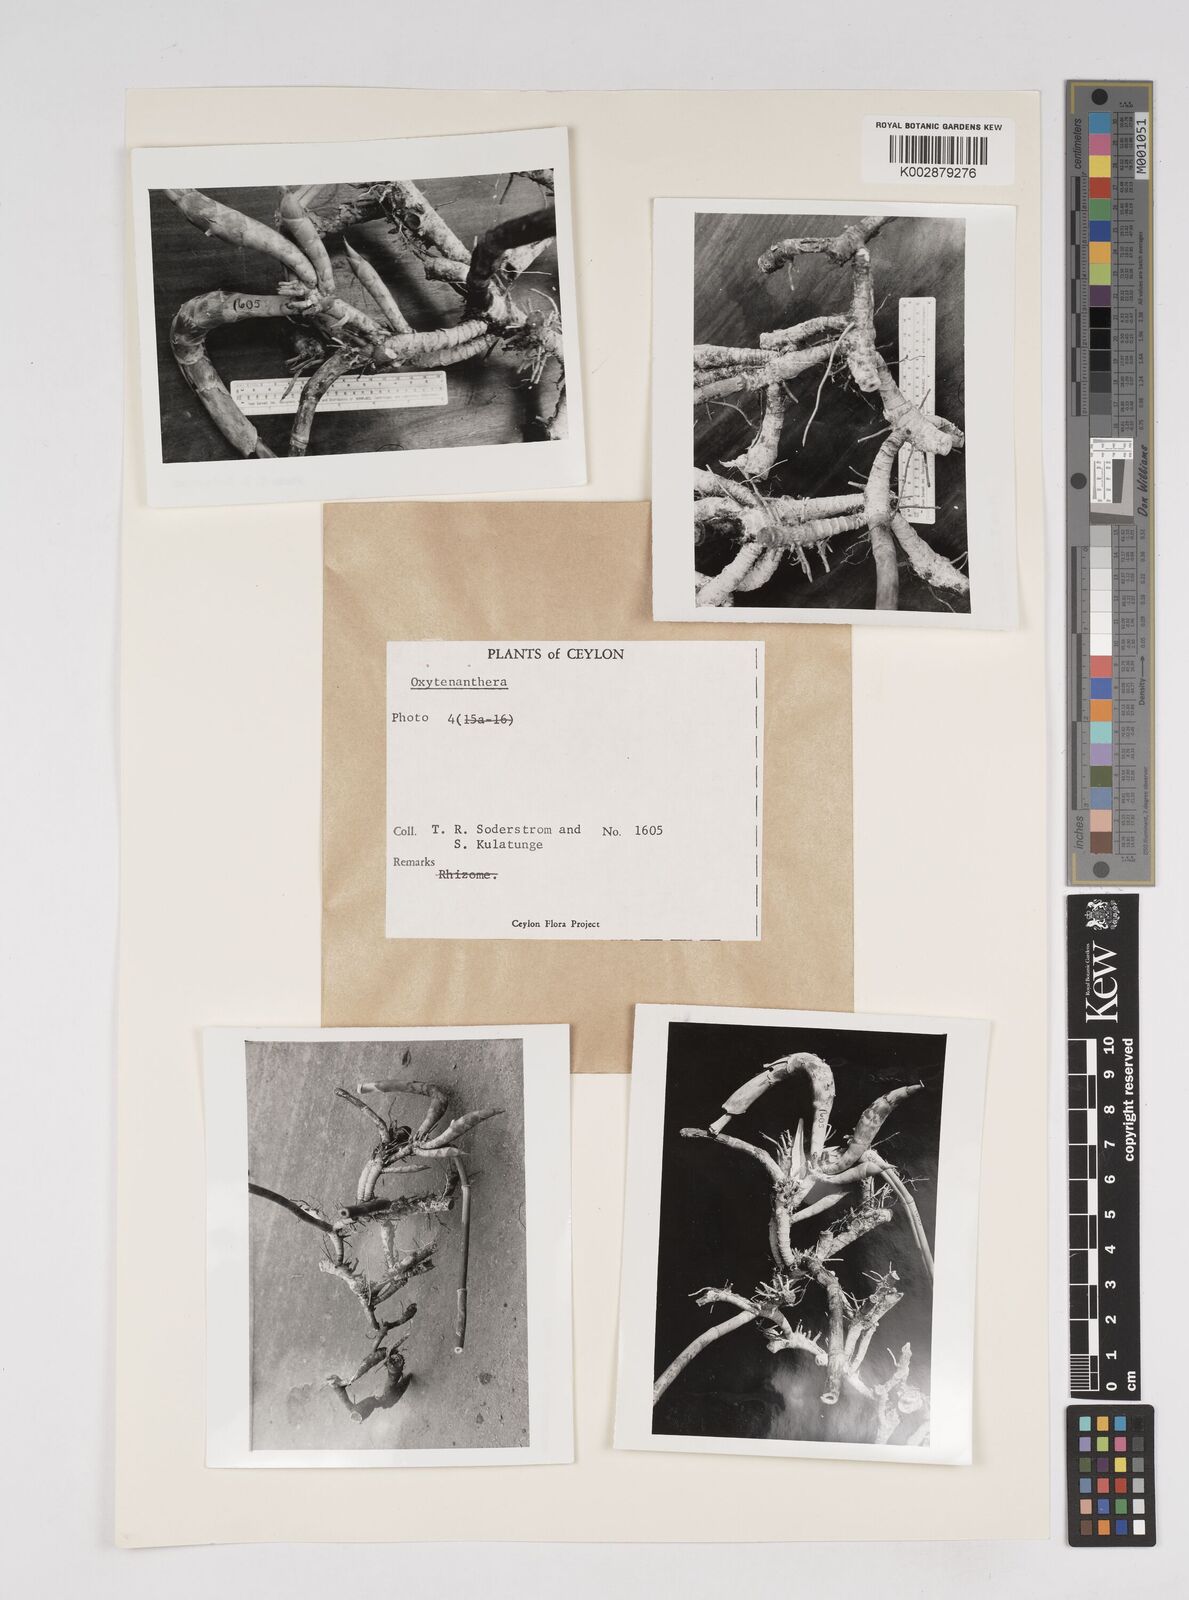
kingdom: Plantae
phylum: Tracheophyta
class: Liliopsida
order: Poales
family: Poaceae
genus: Dendrocalamus
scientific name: Dendrocalamus
